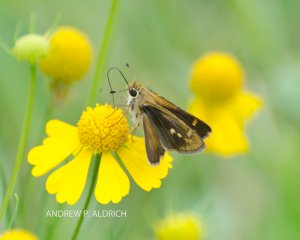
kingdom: Animalia
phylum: Arthropoda
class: Insecta
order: Lepidoptera
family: Hesperiidae
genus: Polites
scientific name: Polites vibex
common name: Whirlabout
